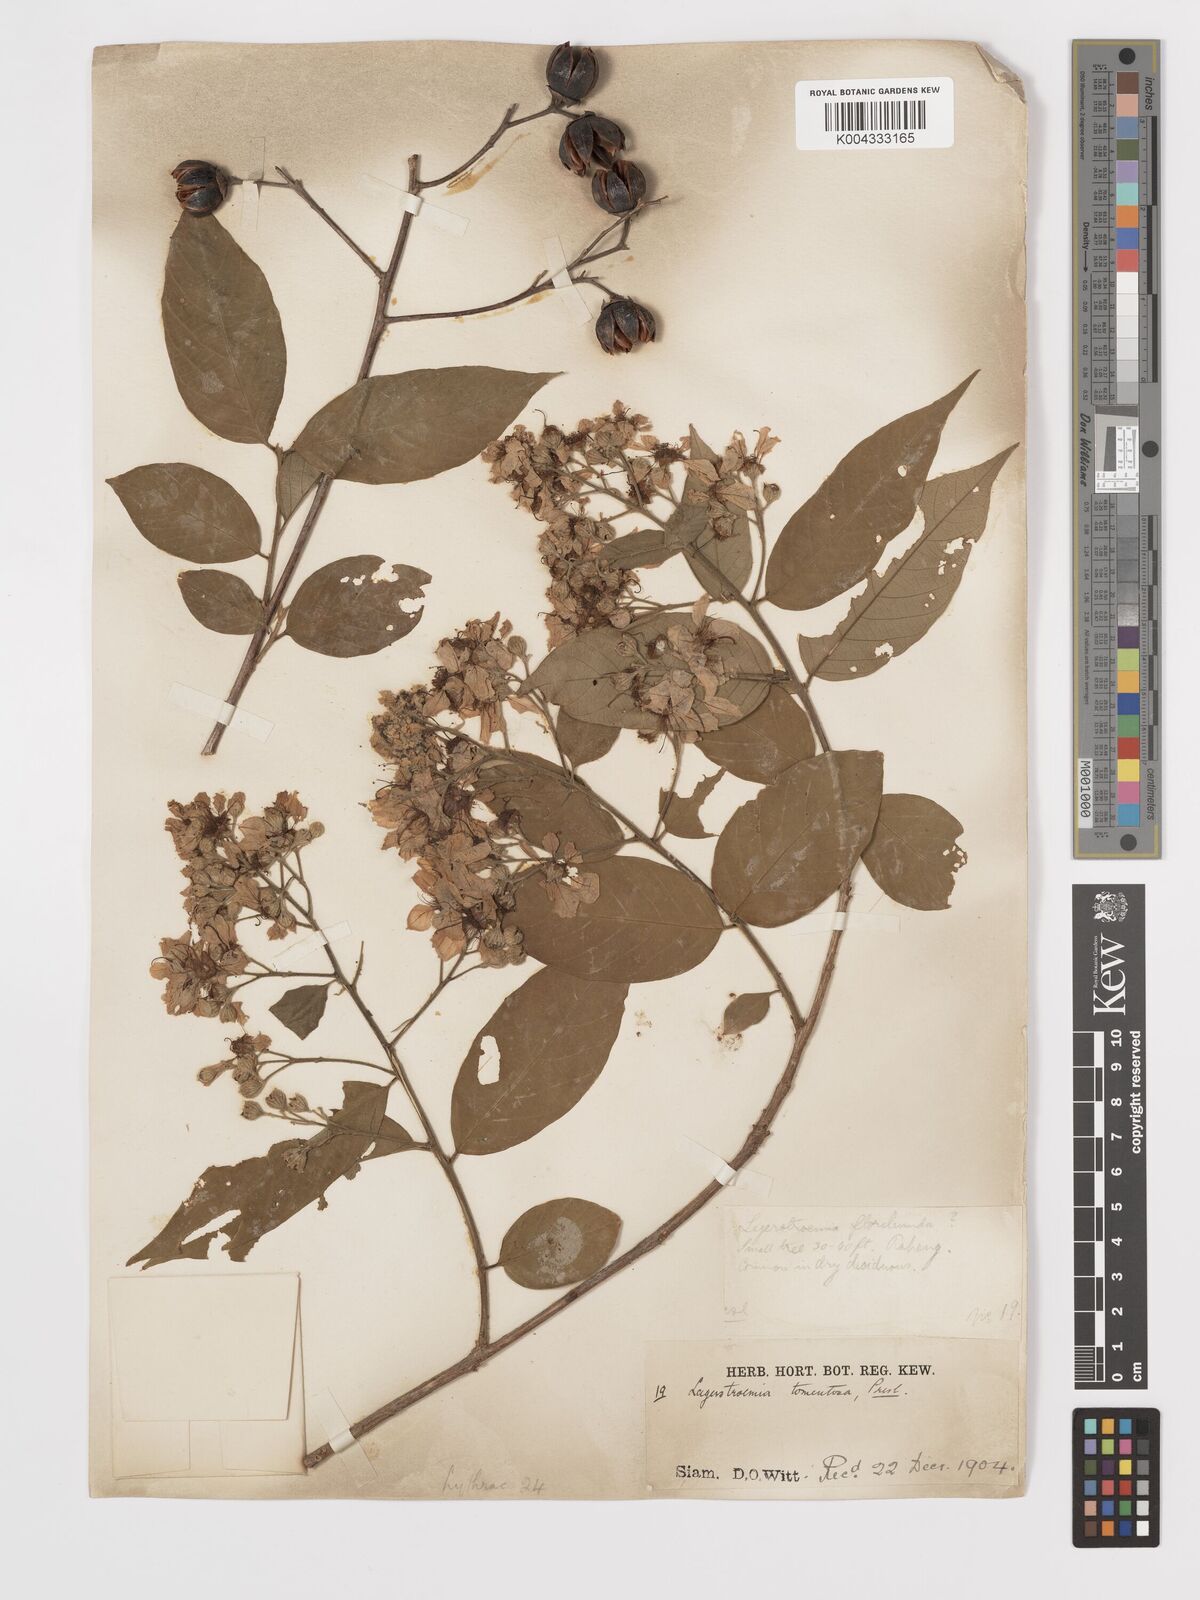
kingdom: Plantae
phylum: Tracheophyta
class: Magnoliopsida
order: Myrtales
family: Lythraceae
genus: Lagerstroemia
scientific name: Lagerstroemia tomentosa
